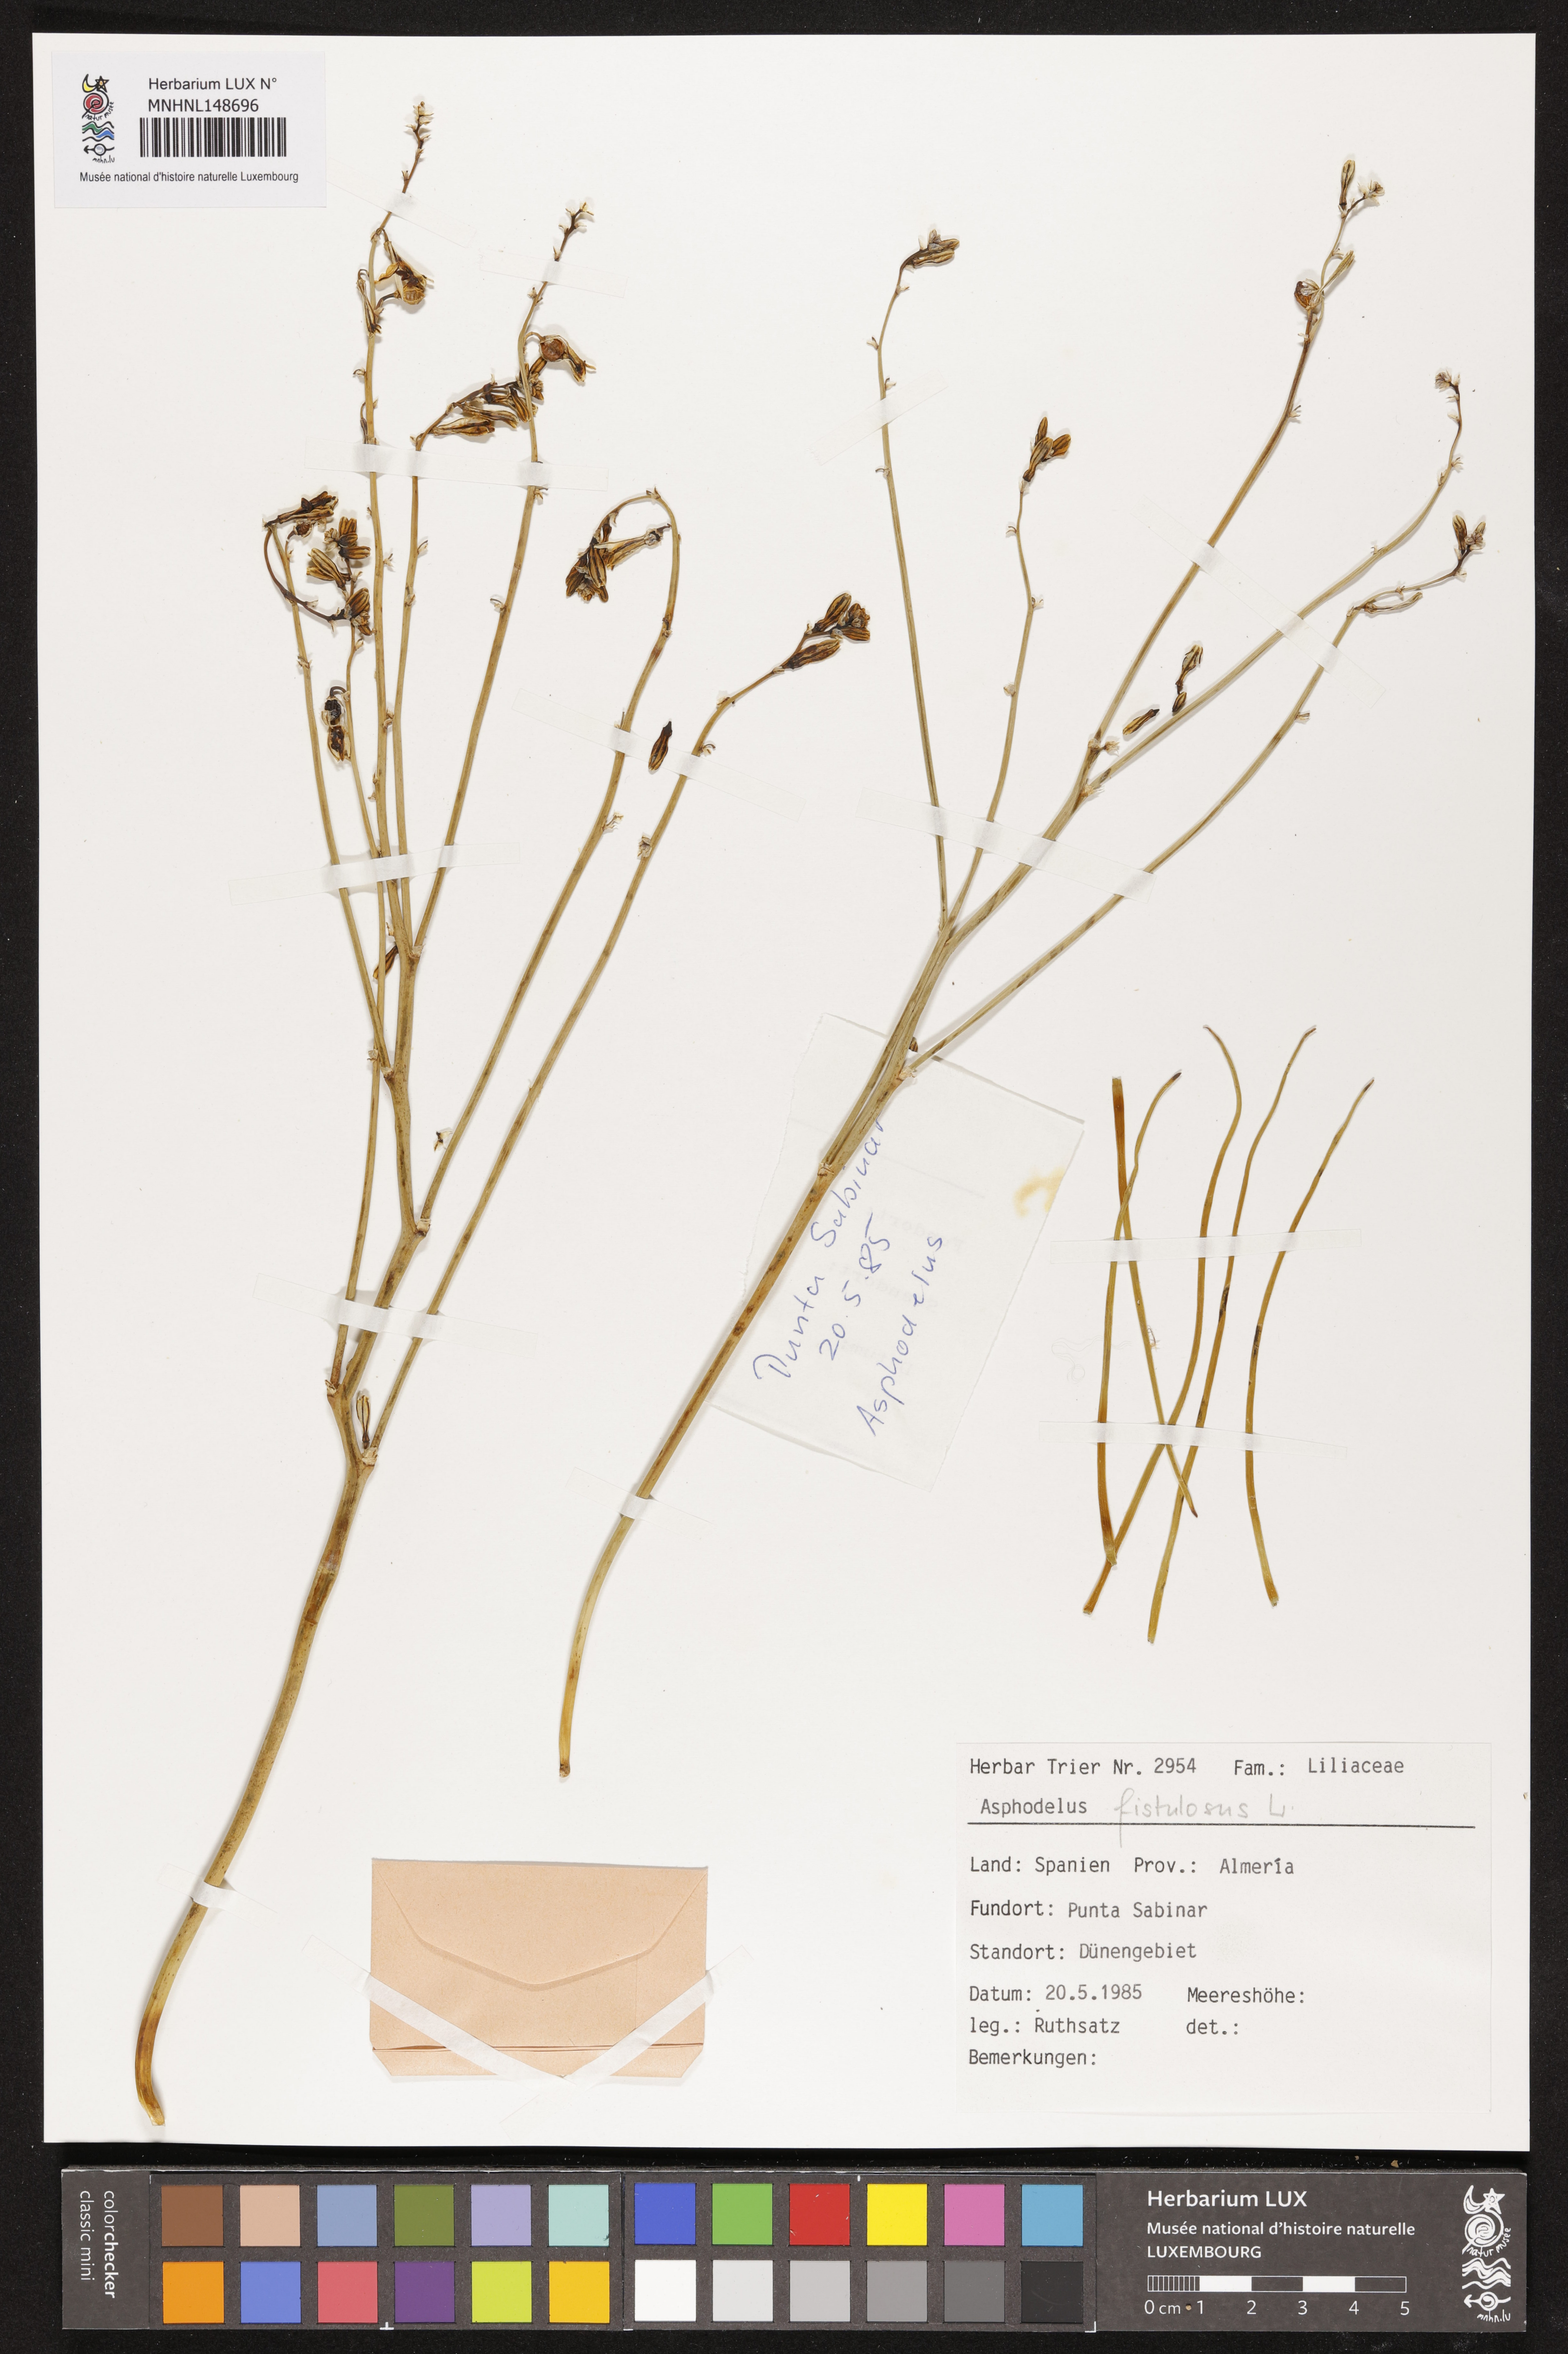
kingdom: Plantae
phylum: Tracheophyta
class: Liliopsida
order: Asparagales
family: Asphodelaceae
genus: Asphodelus
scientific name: Asphodelus fistulosus
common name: Onionweed
